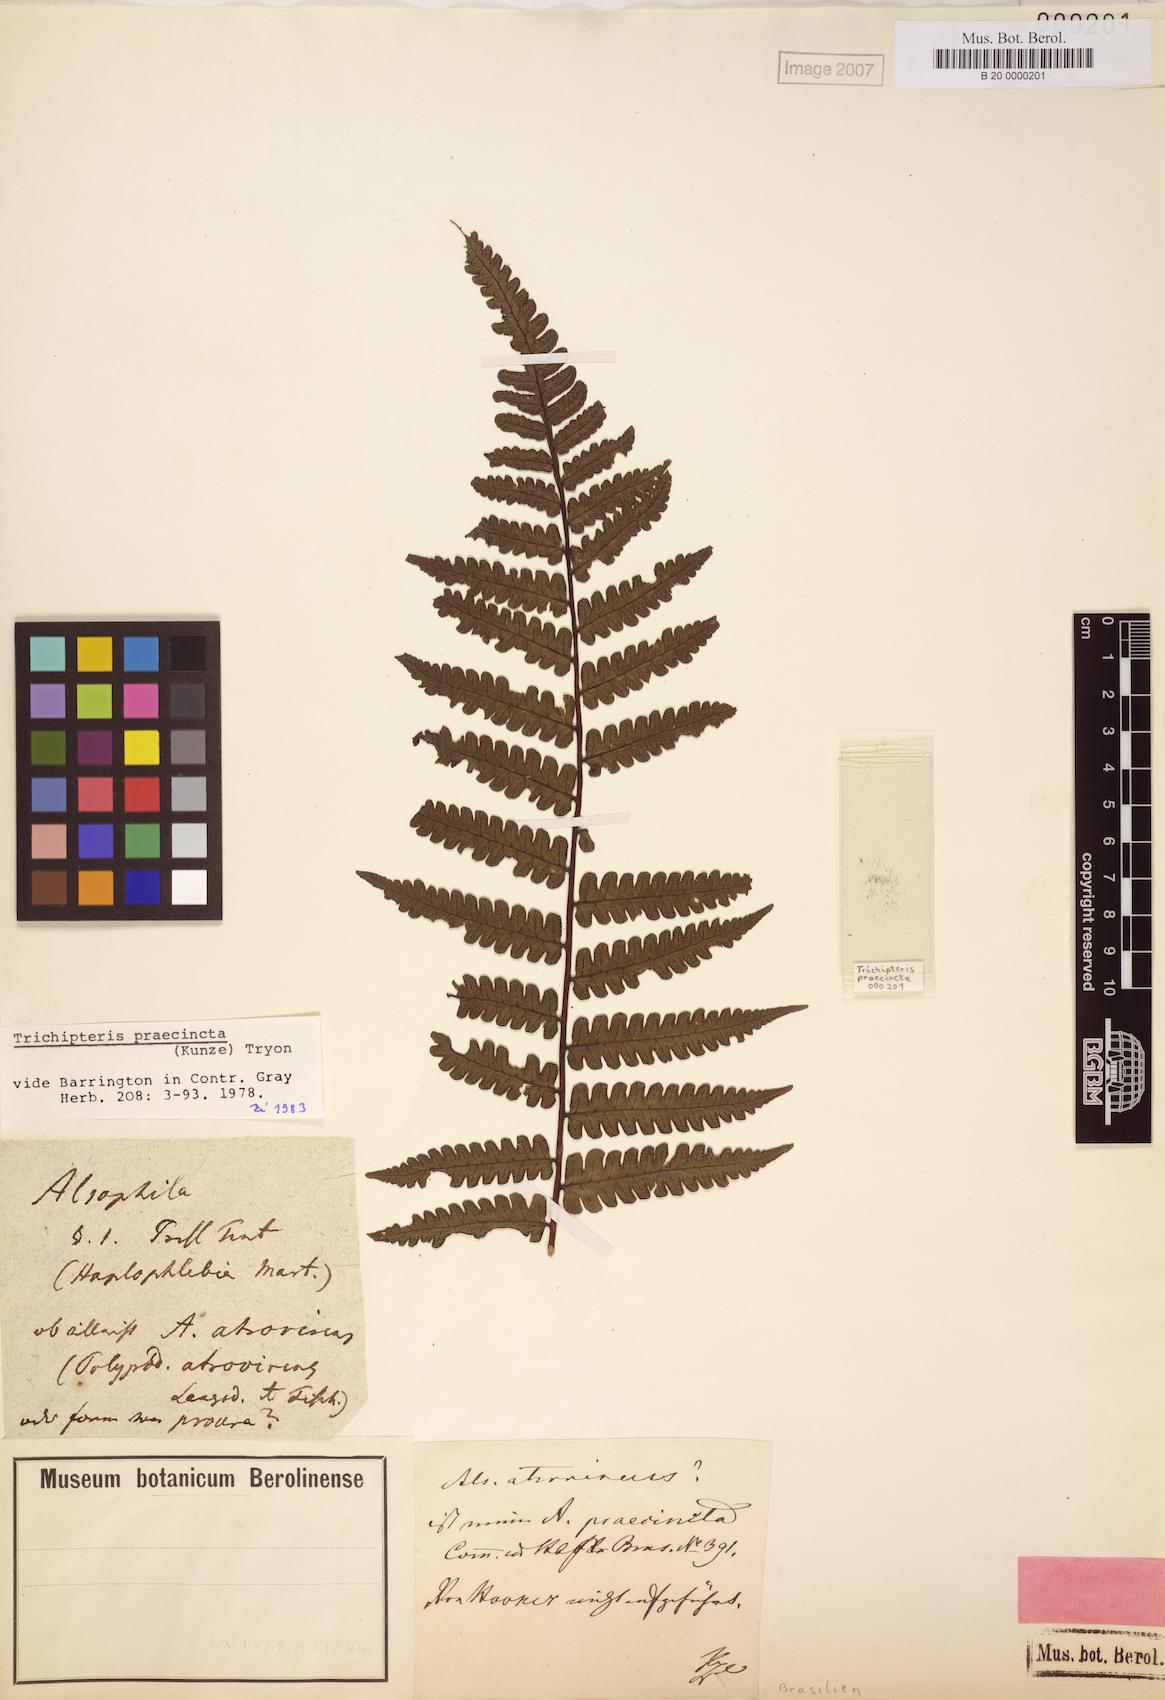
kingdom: Plantae
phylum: Tracheophyta
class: Polypodiopsida
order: Cyatheales
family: Cyatheaceae
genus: Cyathea
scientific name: Cyathea praecincta
